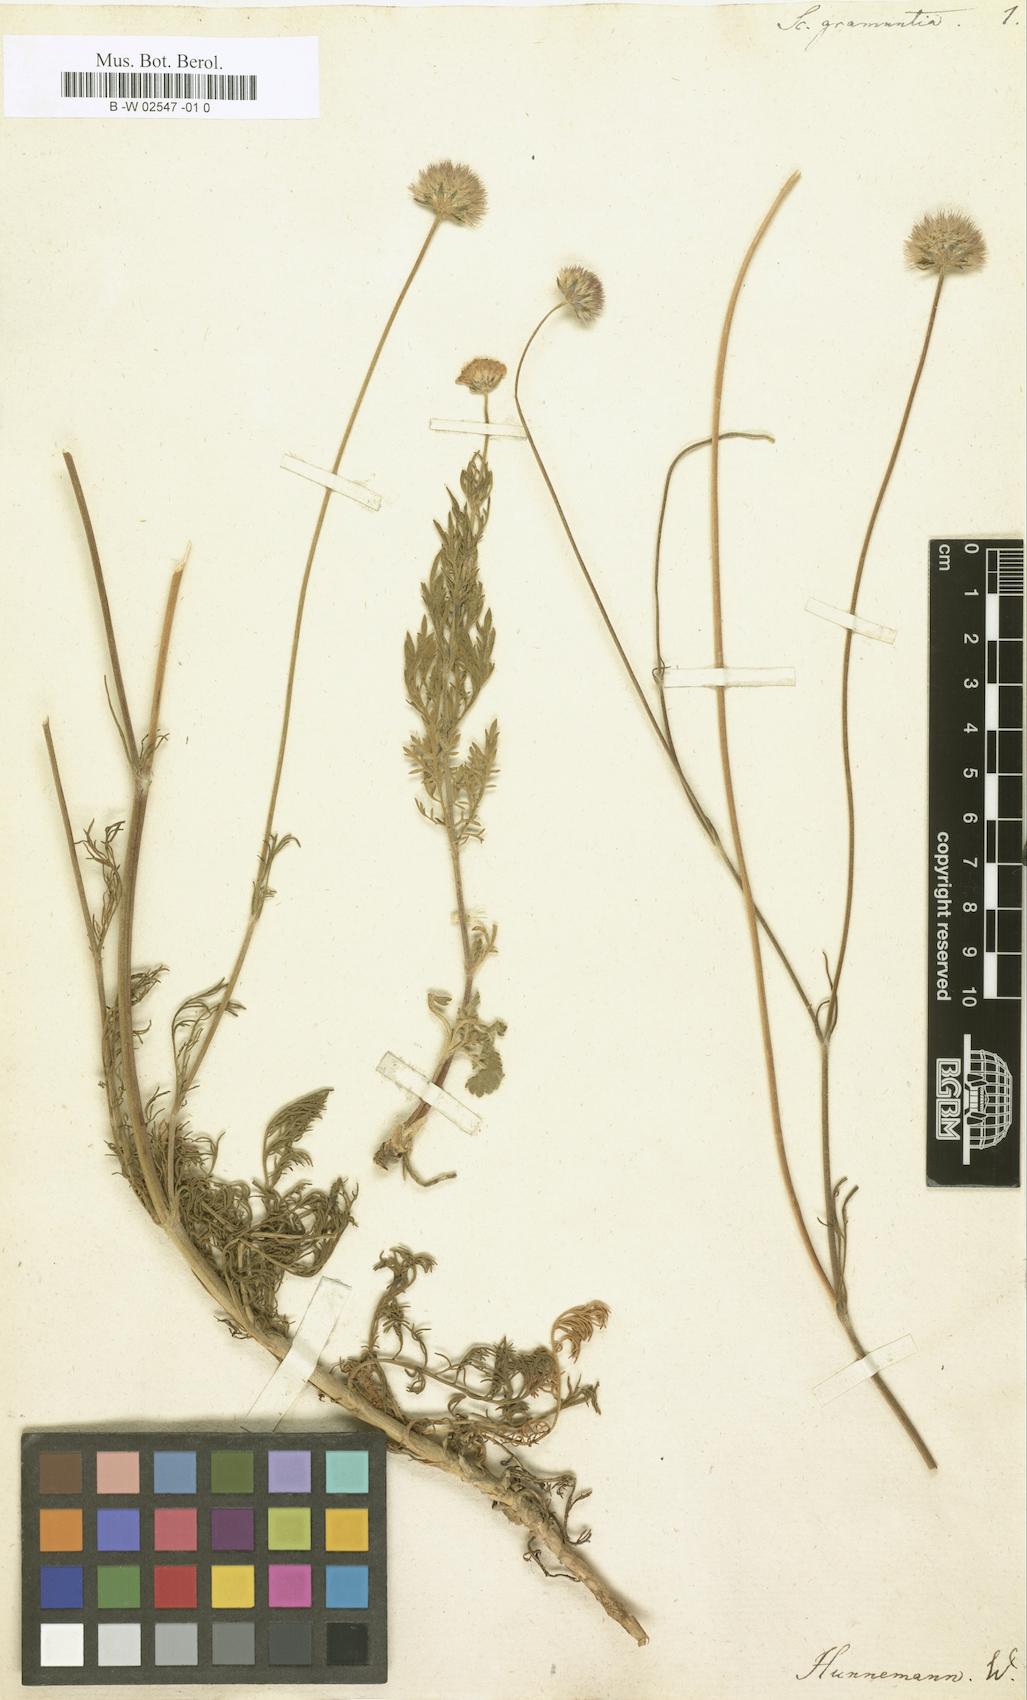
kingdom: Plantae
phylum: Tracheophyta
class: Magnoliopsida
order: Dipsacales
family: Caprifoliaceae
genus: Scabiosa
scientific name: Scabiosa triandra
